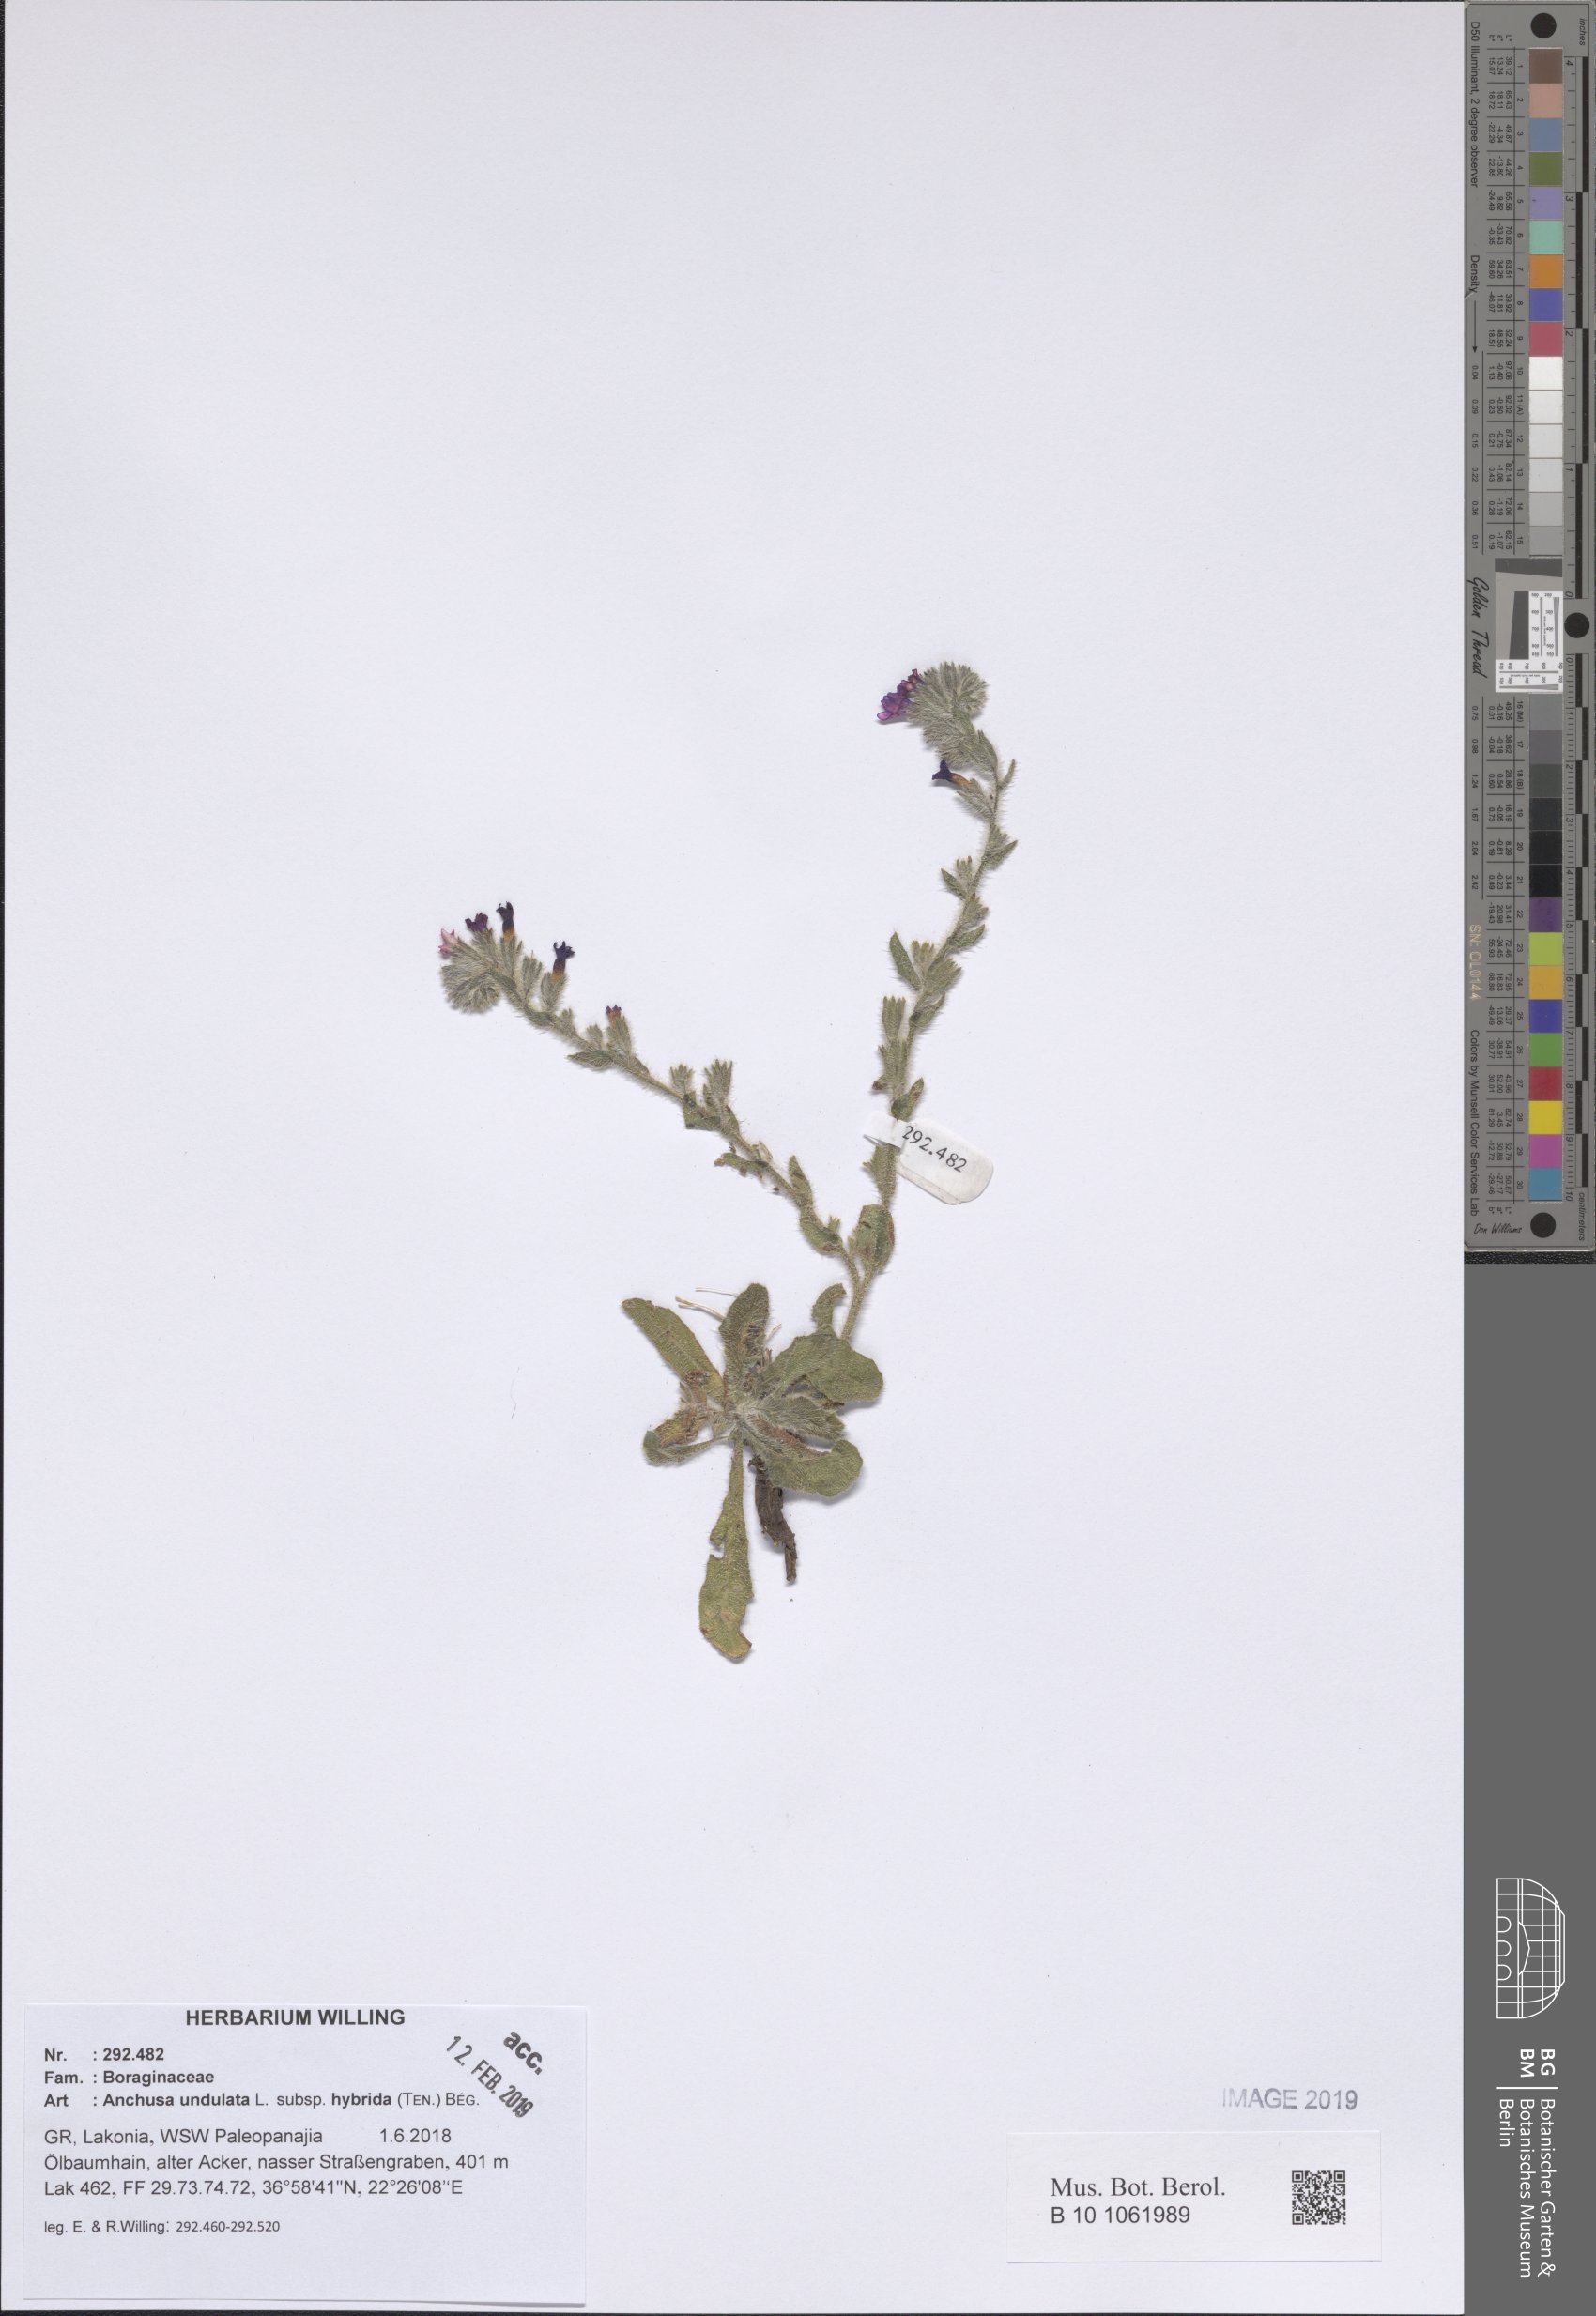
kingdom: Plantae
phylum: Tracheophyta
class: Magnoliopsida
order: Boraginales
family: Boraginaceae
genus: Anchusa
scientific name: Anchusa undulata
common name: Undulate alkanet
